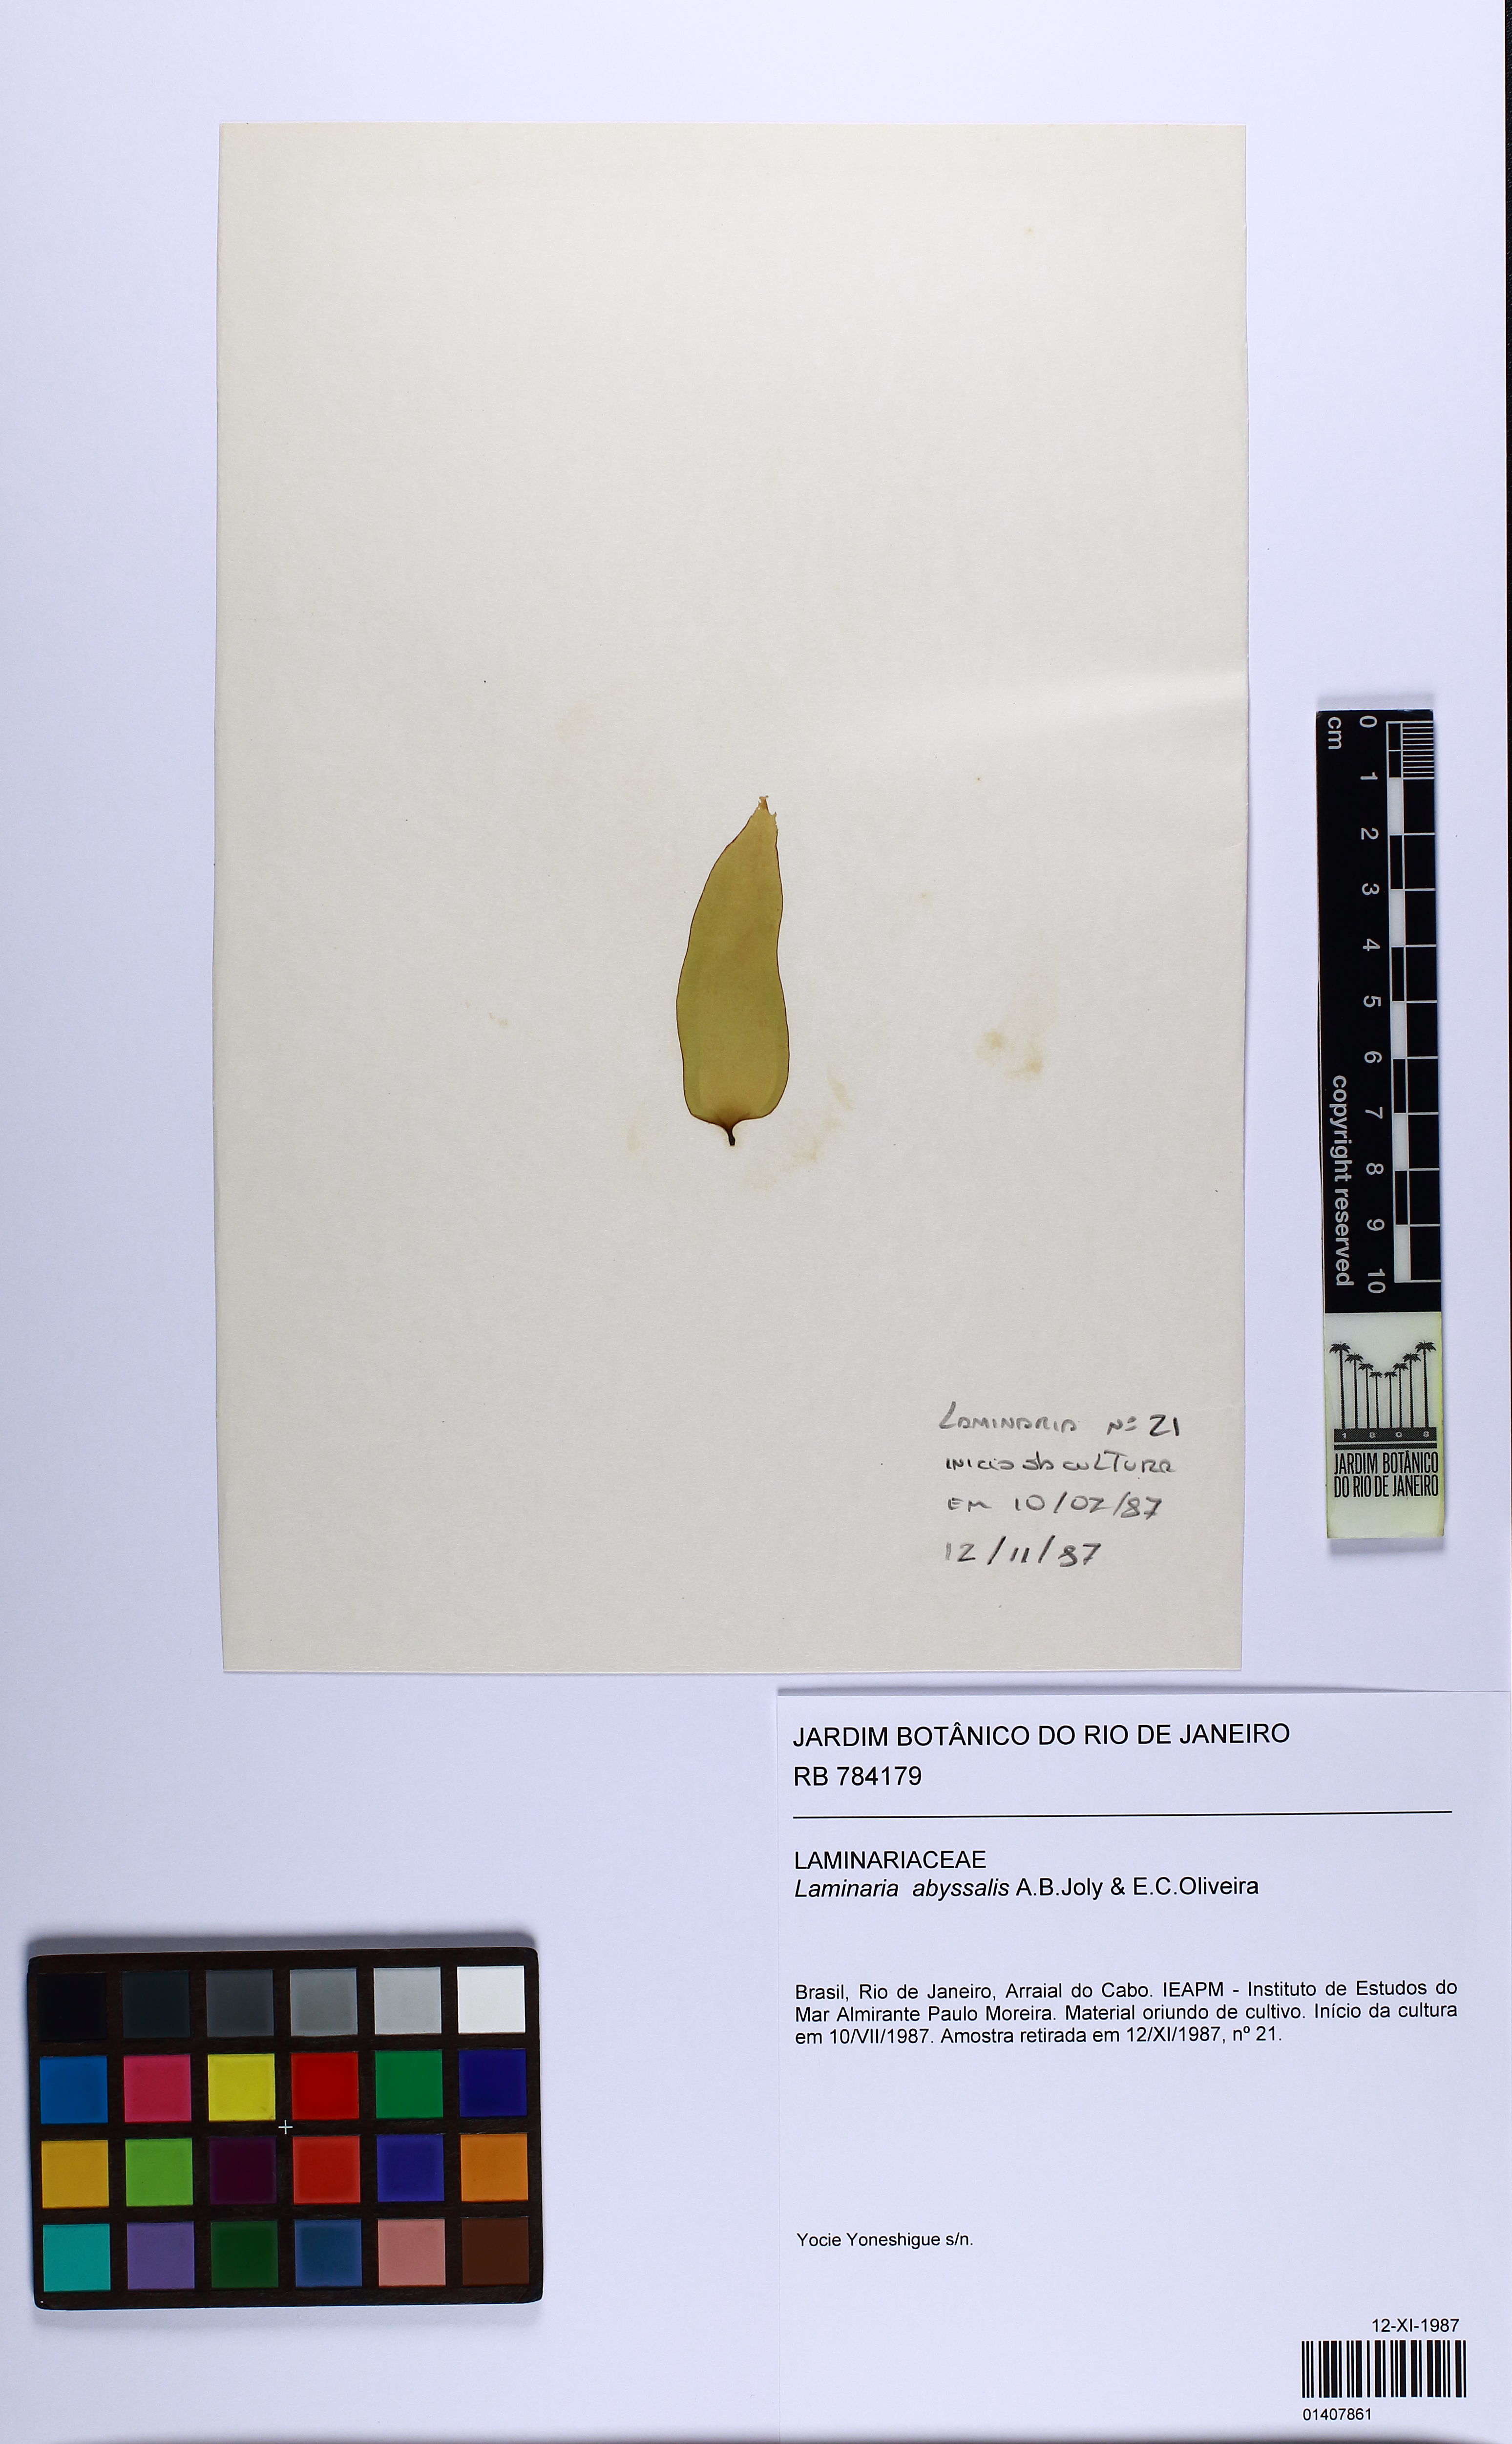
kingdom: Chromista
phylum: Ochrophyta
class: Phaeophyceae
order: Laminariales
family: Laminariaceae
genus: Laminaria
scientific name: Laminaria abyssalis
